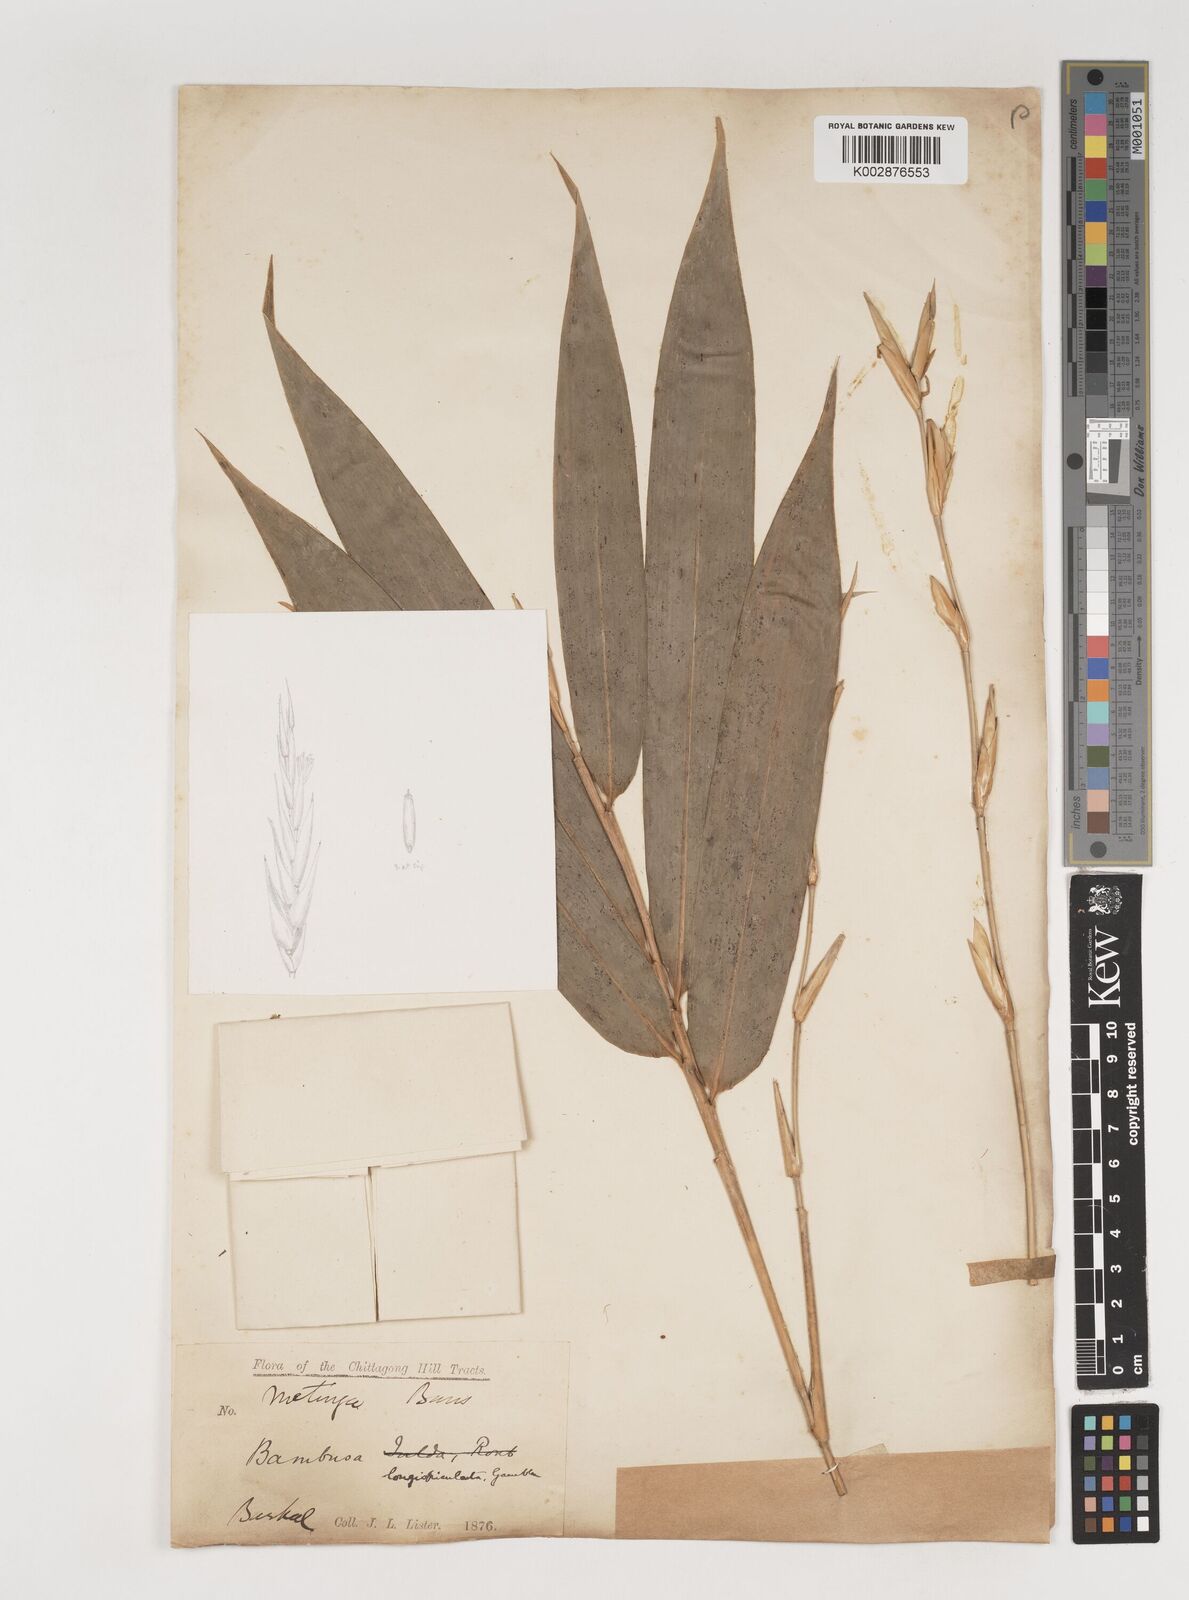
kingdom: Plantae
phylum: Tracheophyta
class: Liliopsida
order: Poales
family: Poaceae
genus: Bambusa
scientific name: Bambusa longispiculata
